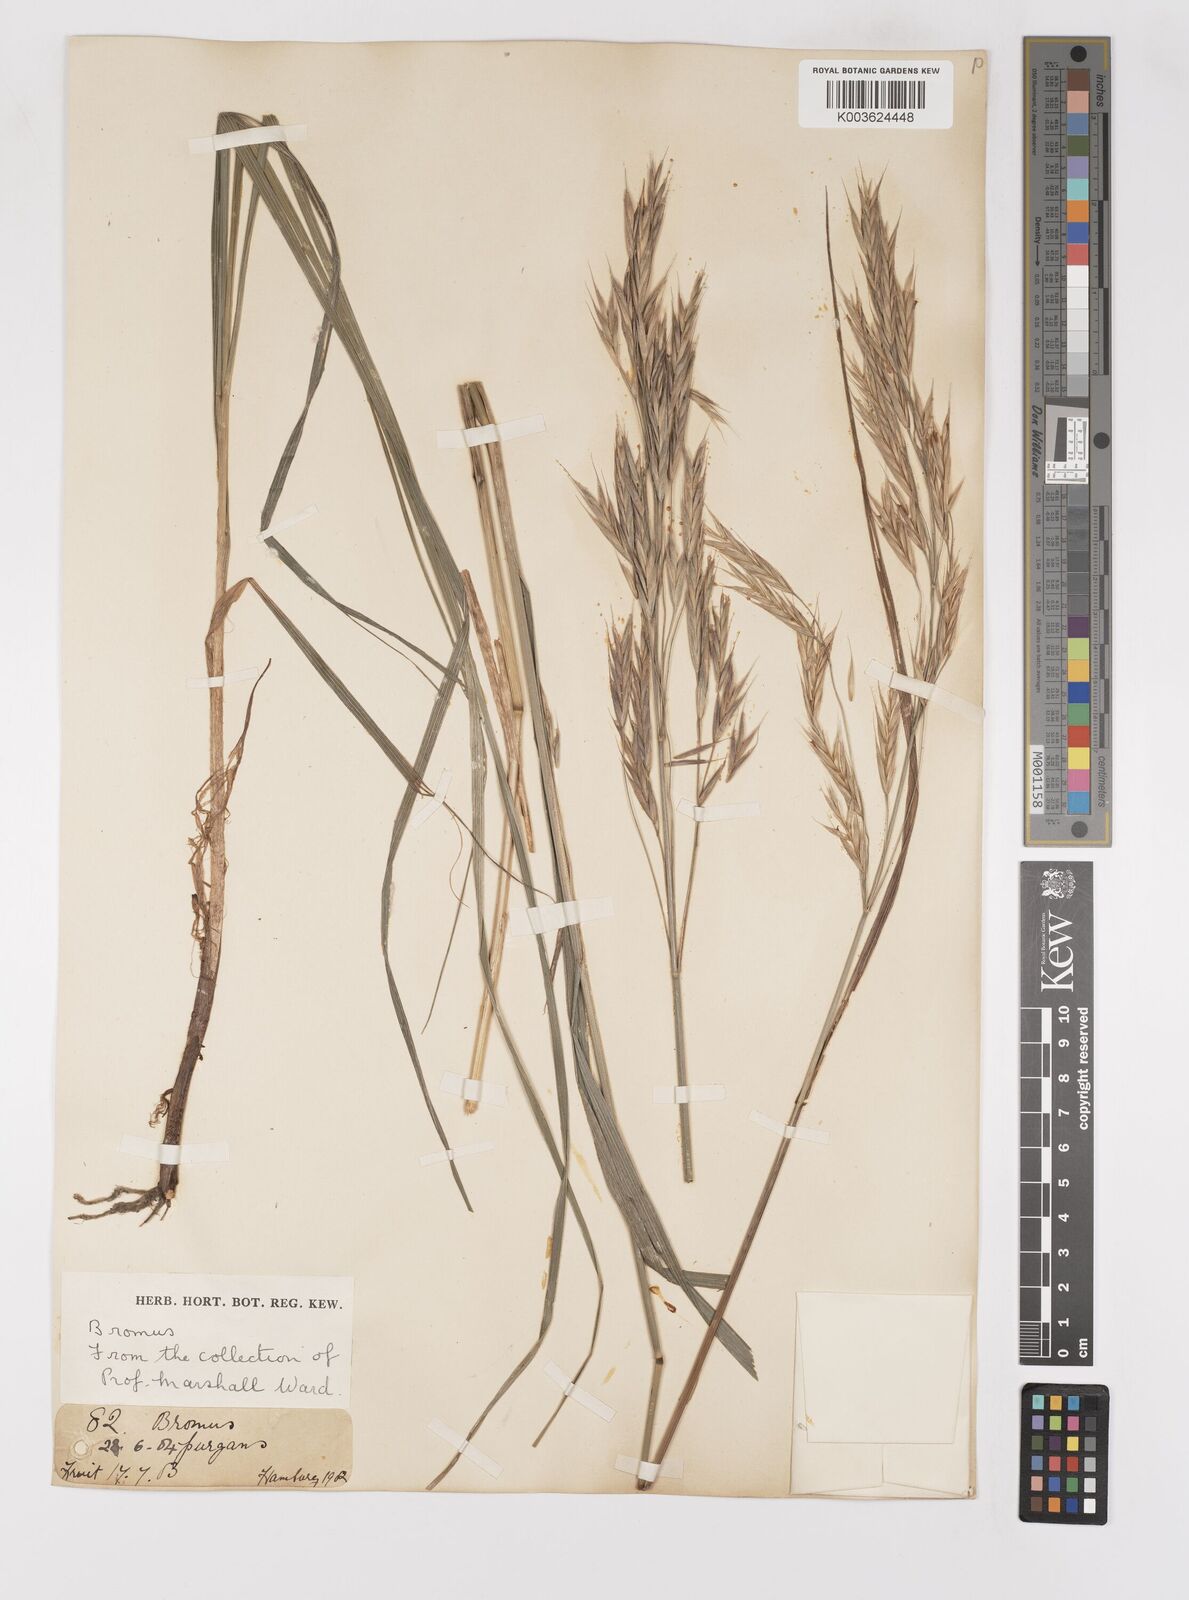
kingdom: Plantae
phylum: Tracheophyta
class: Liliopsida
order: Poales
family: Poaceae
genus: Bromus
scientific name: Bromus
